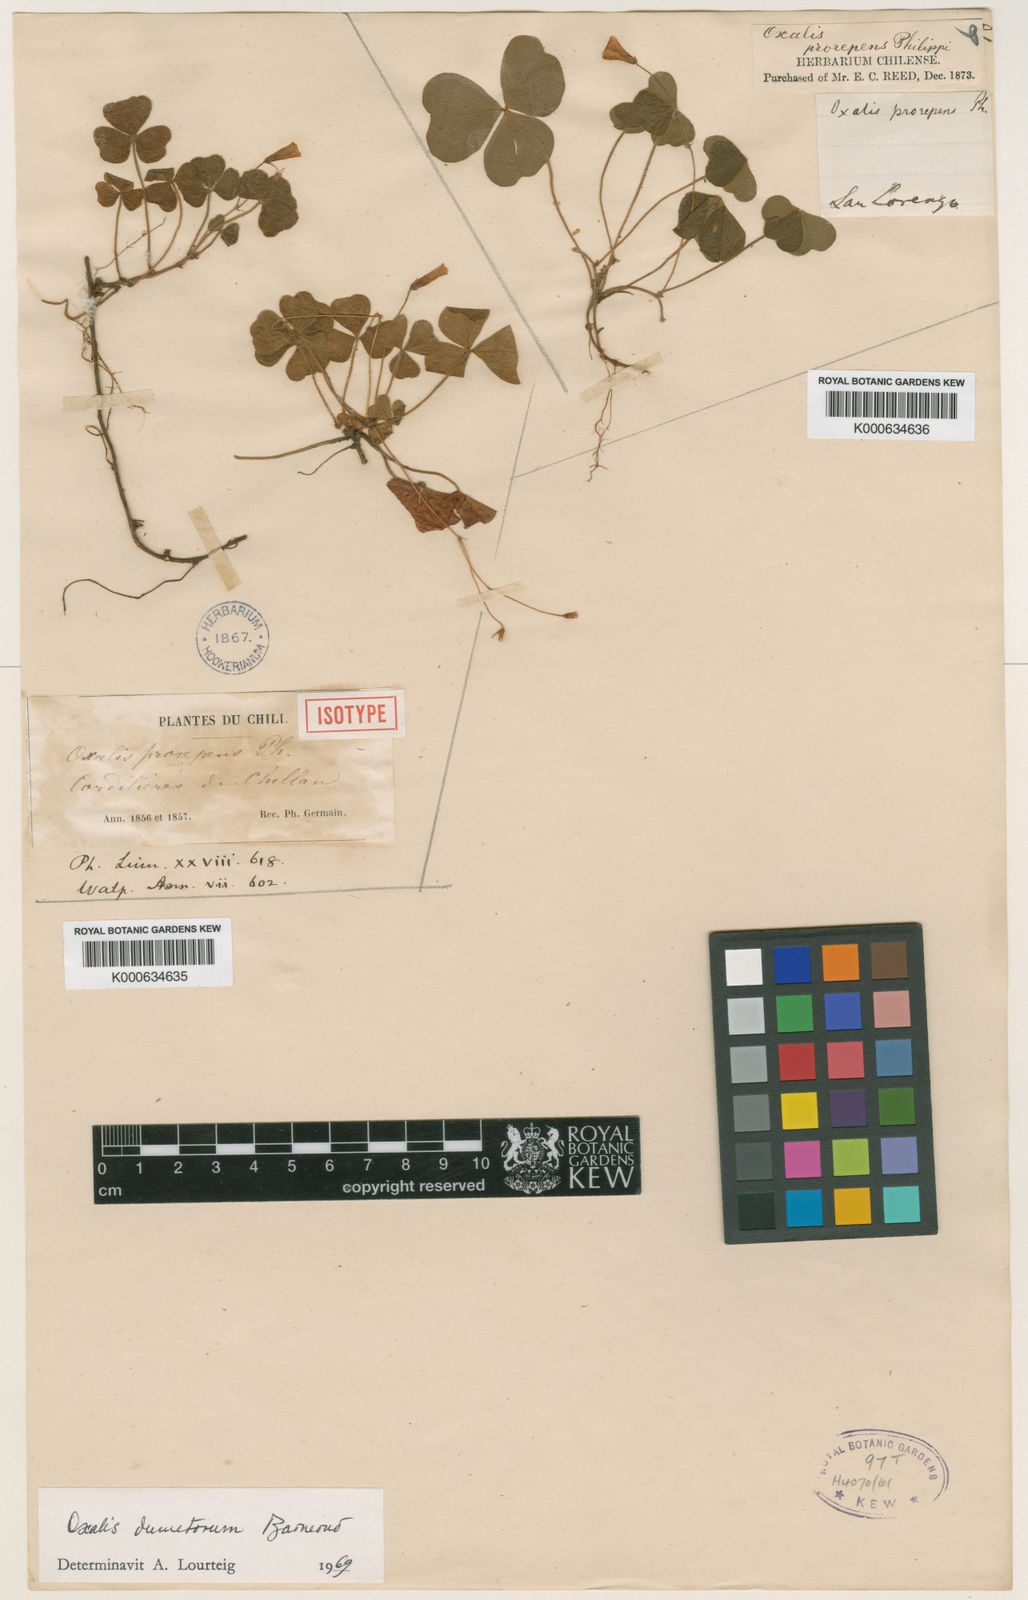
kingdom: Plantae
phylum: Tracheophyta
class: Magnoliopsida
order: Oxalidales
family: Oxalidaceae
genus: Oxalis
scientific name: Oxalis
